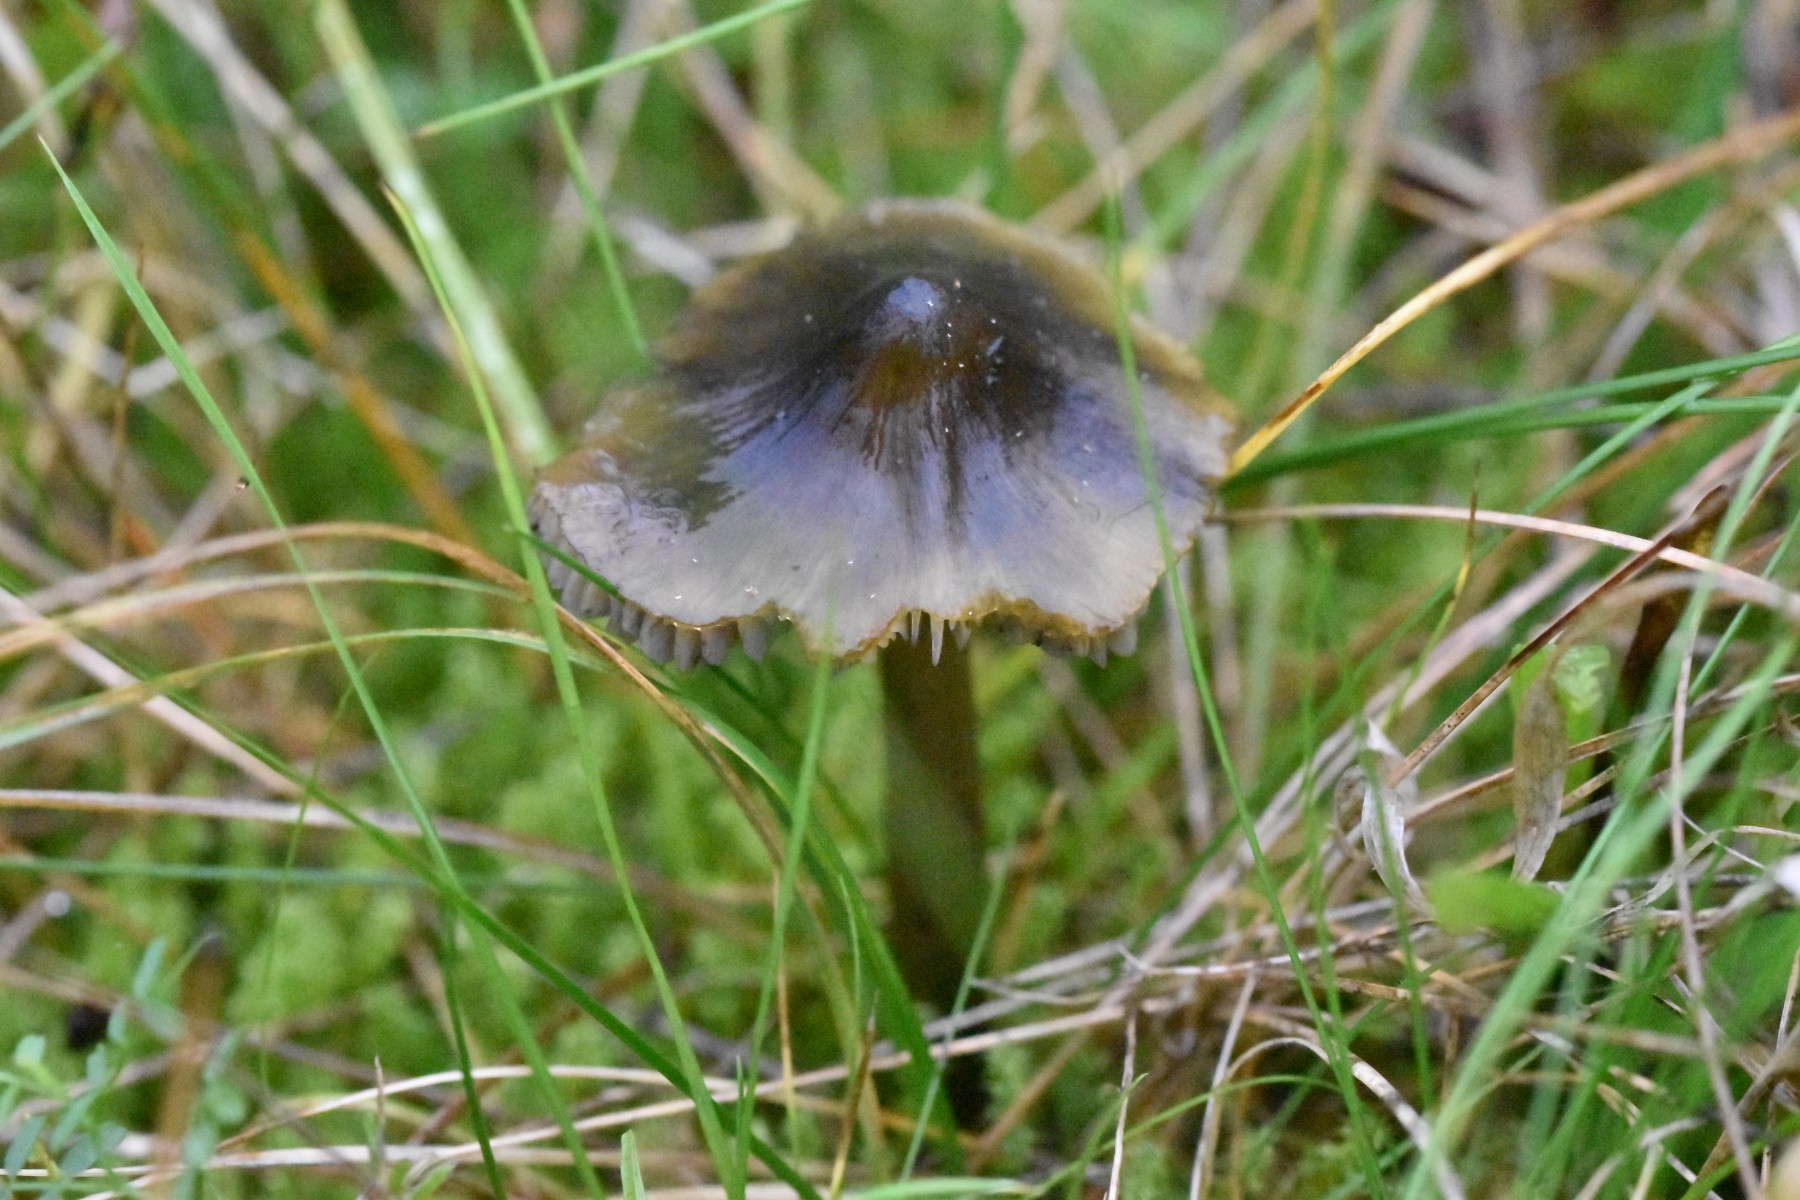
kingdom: Fungi
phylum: Basidiomycota
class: Agaricomycetes
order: Agaricales
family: Hygrophoraceae
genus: Hygrocybe
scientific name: Hygrocybe conica
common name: kegle-vokshat
